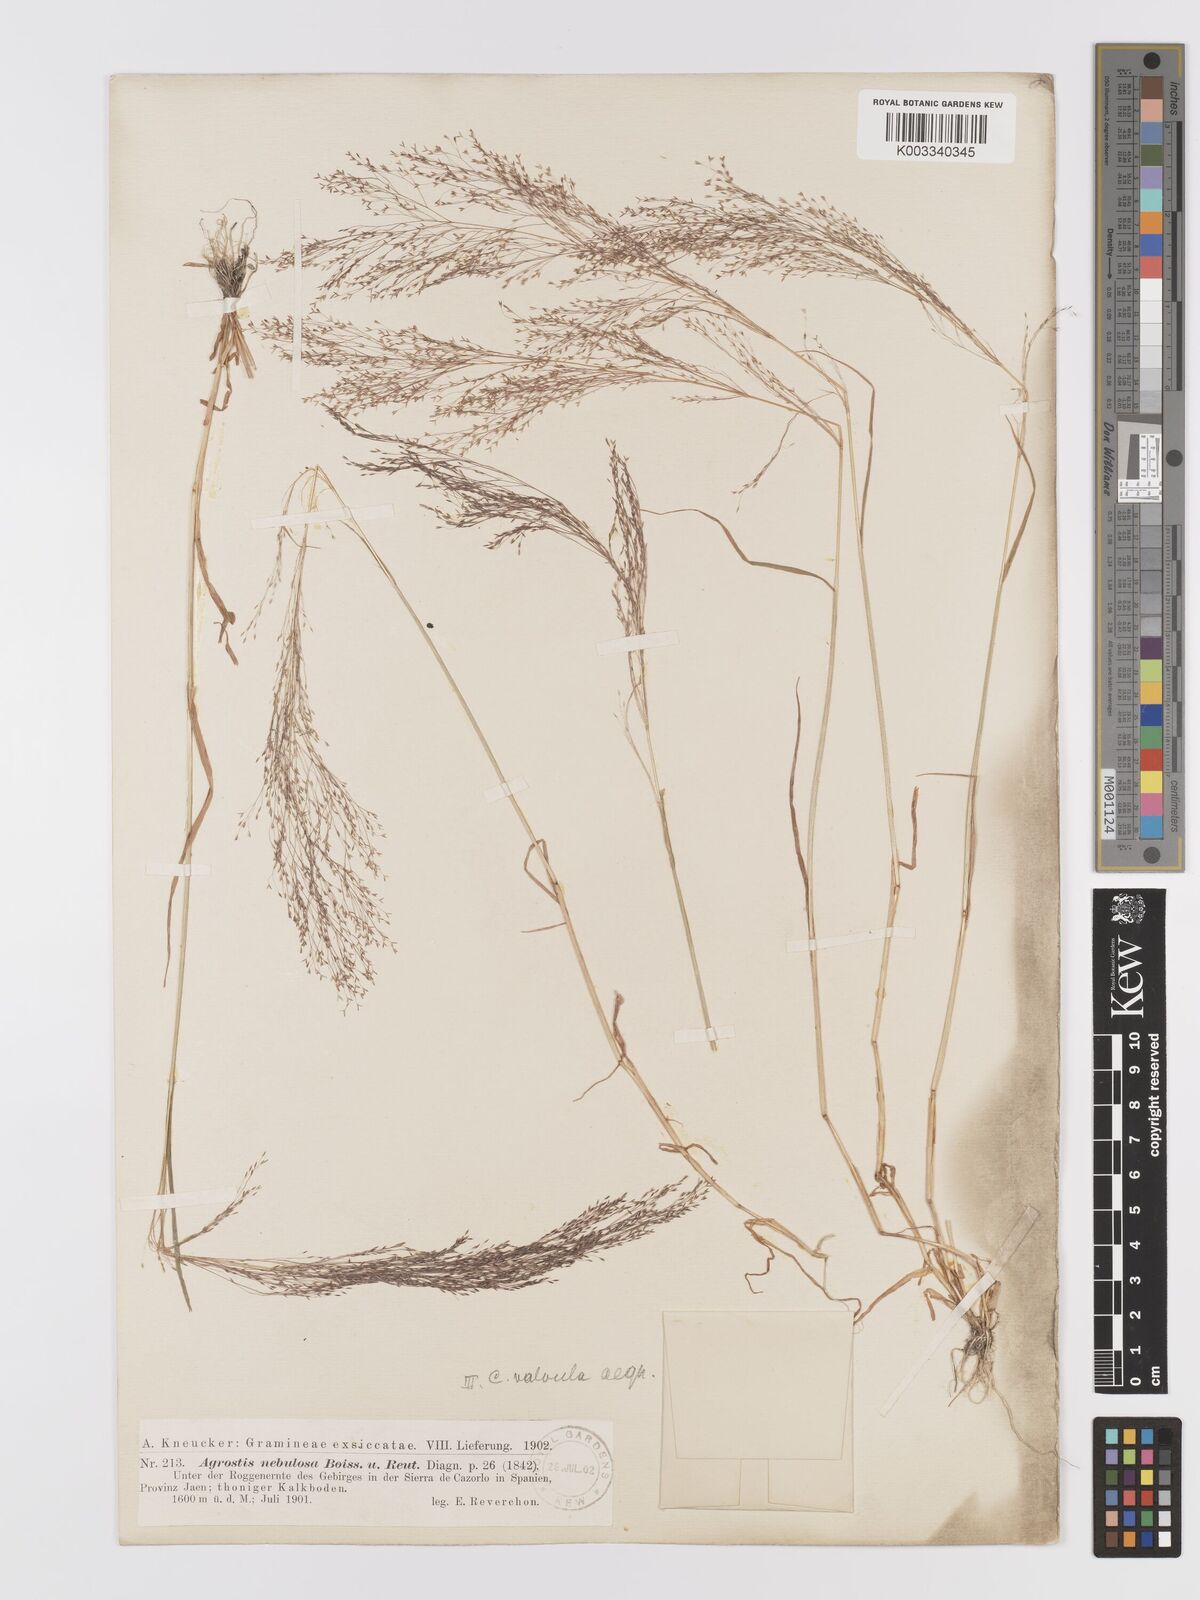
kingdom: Plantae
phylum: Tracheophyta
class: Liliopsida
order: Poales
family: Poaceae
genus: Agrostis
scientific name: Agrostis nebulosa
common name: Cloud grass
